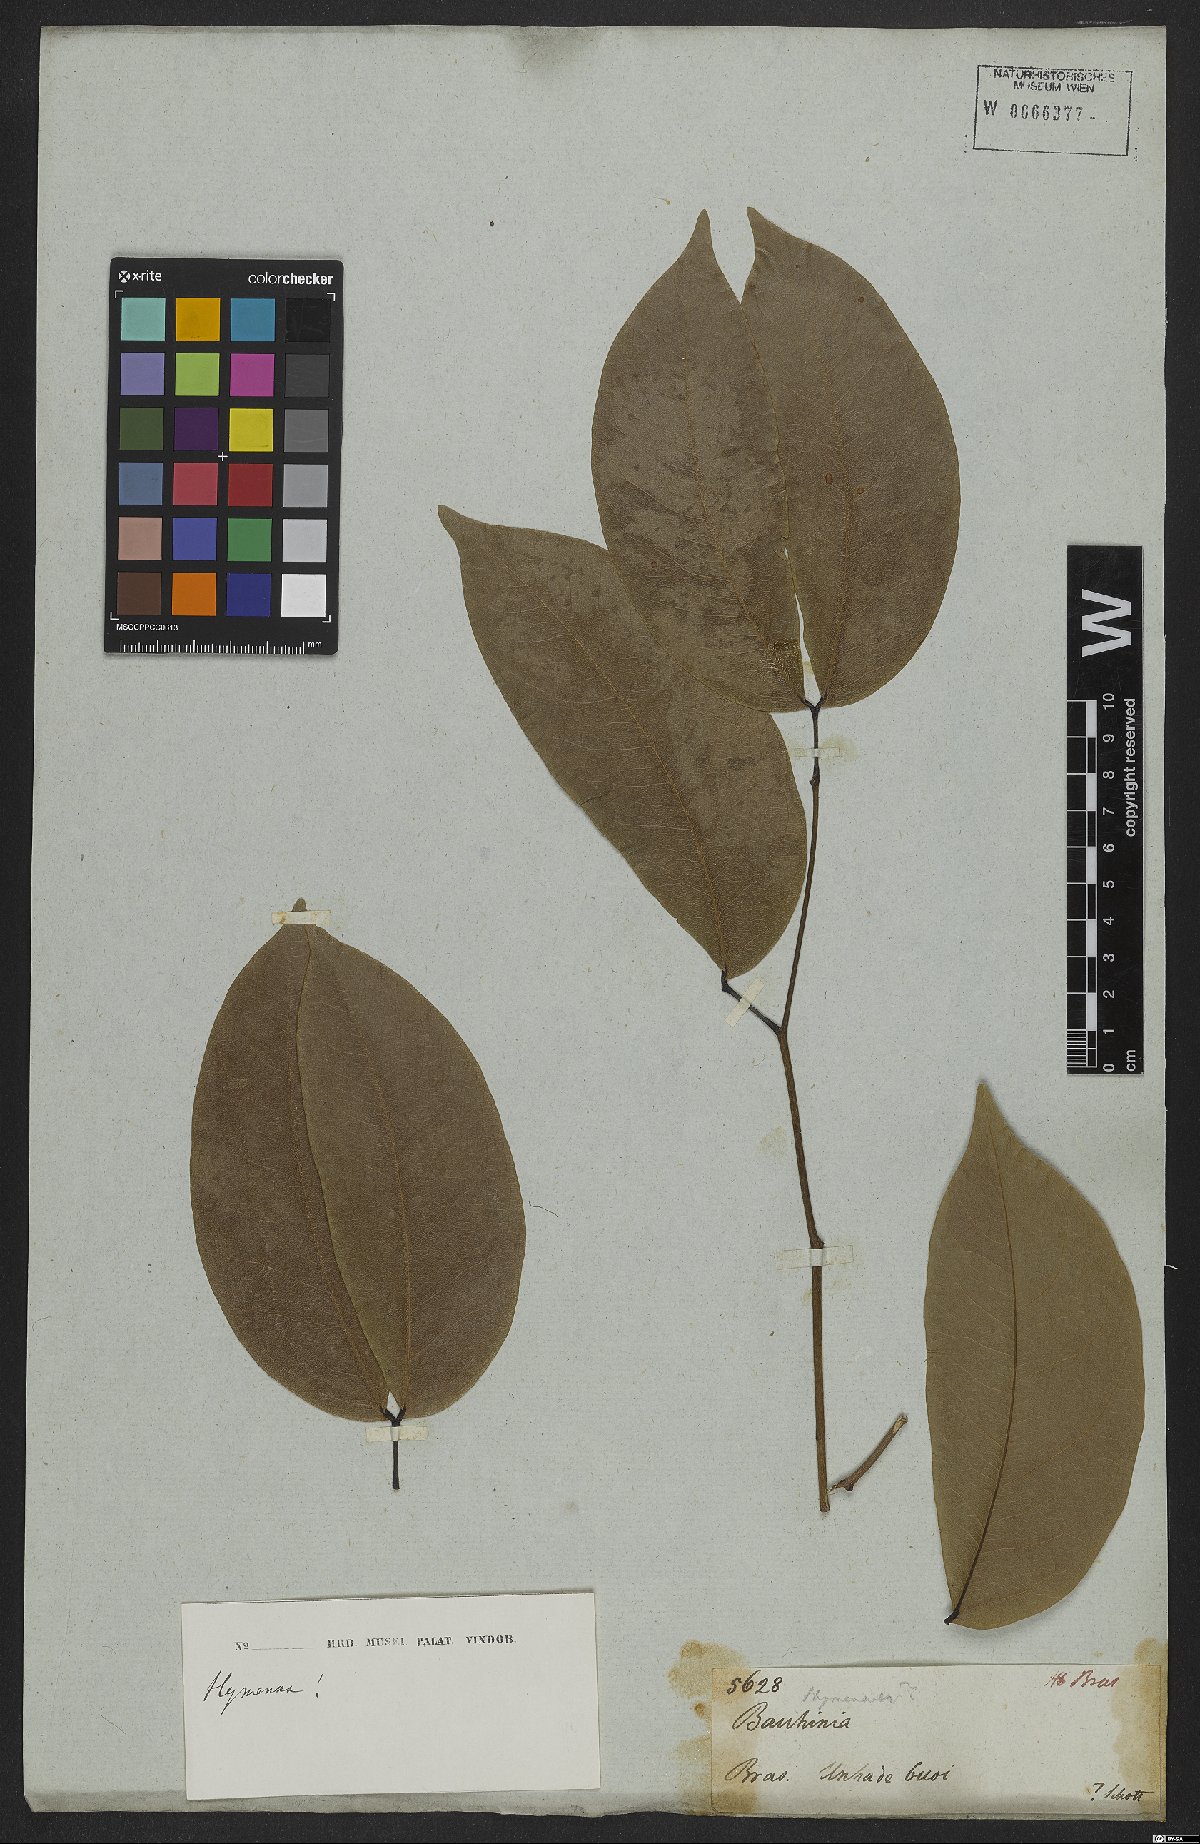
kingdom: Plantae
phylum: Tracheophyta
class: Magnoliopsida
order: Fabales
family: Fabaceae
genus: Hymenaea
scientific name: Hymenaea
